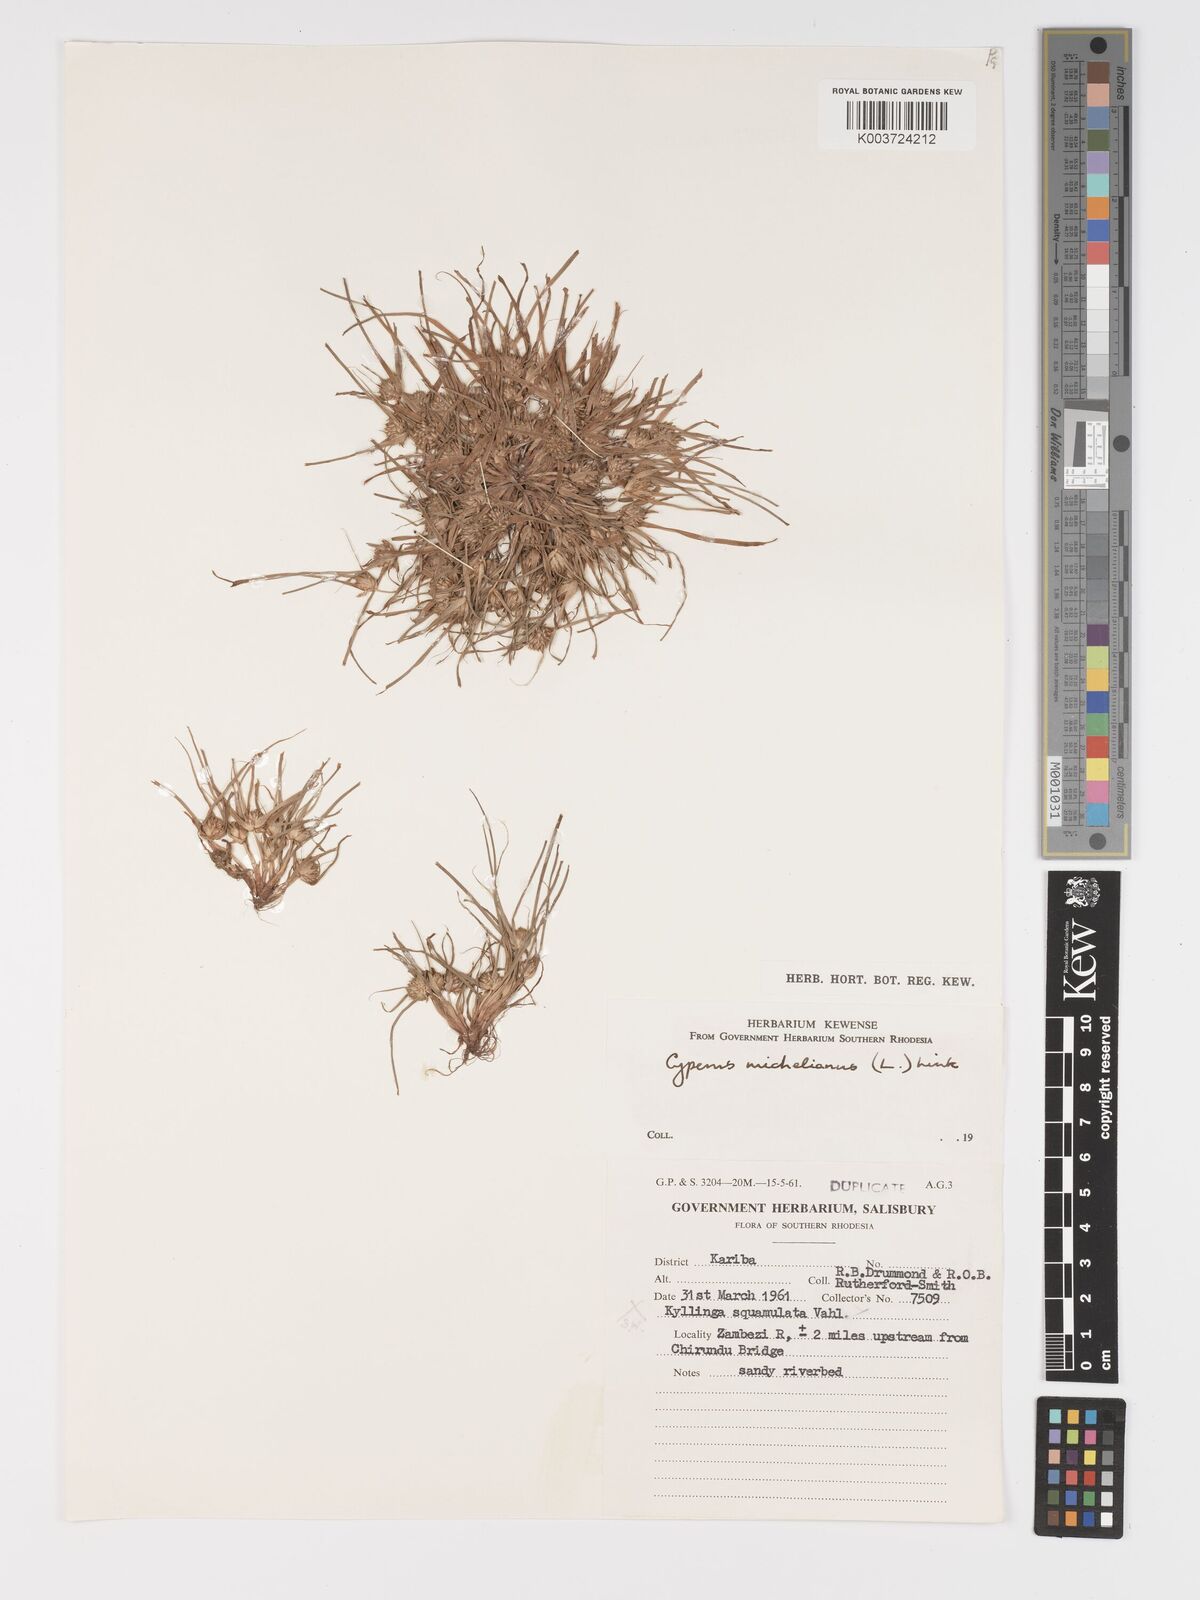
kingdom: Plantae
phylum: Tracheophyta
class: Liliopsida
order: Poales
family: Cyperaceae
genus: Cyperus
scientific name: Cyperus michelianus
